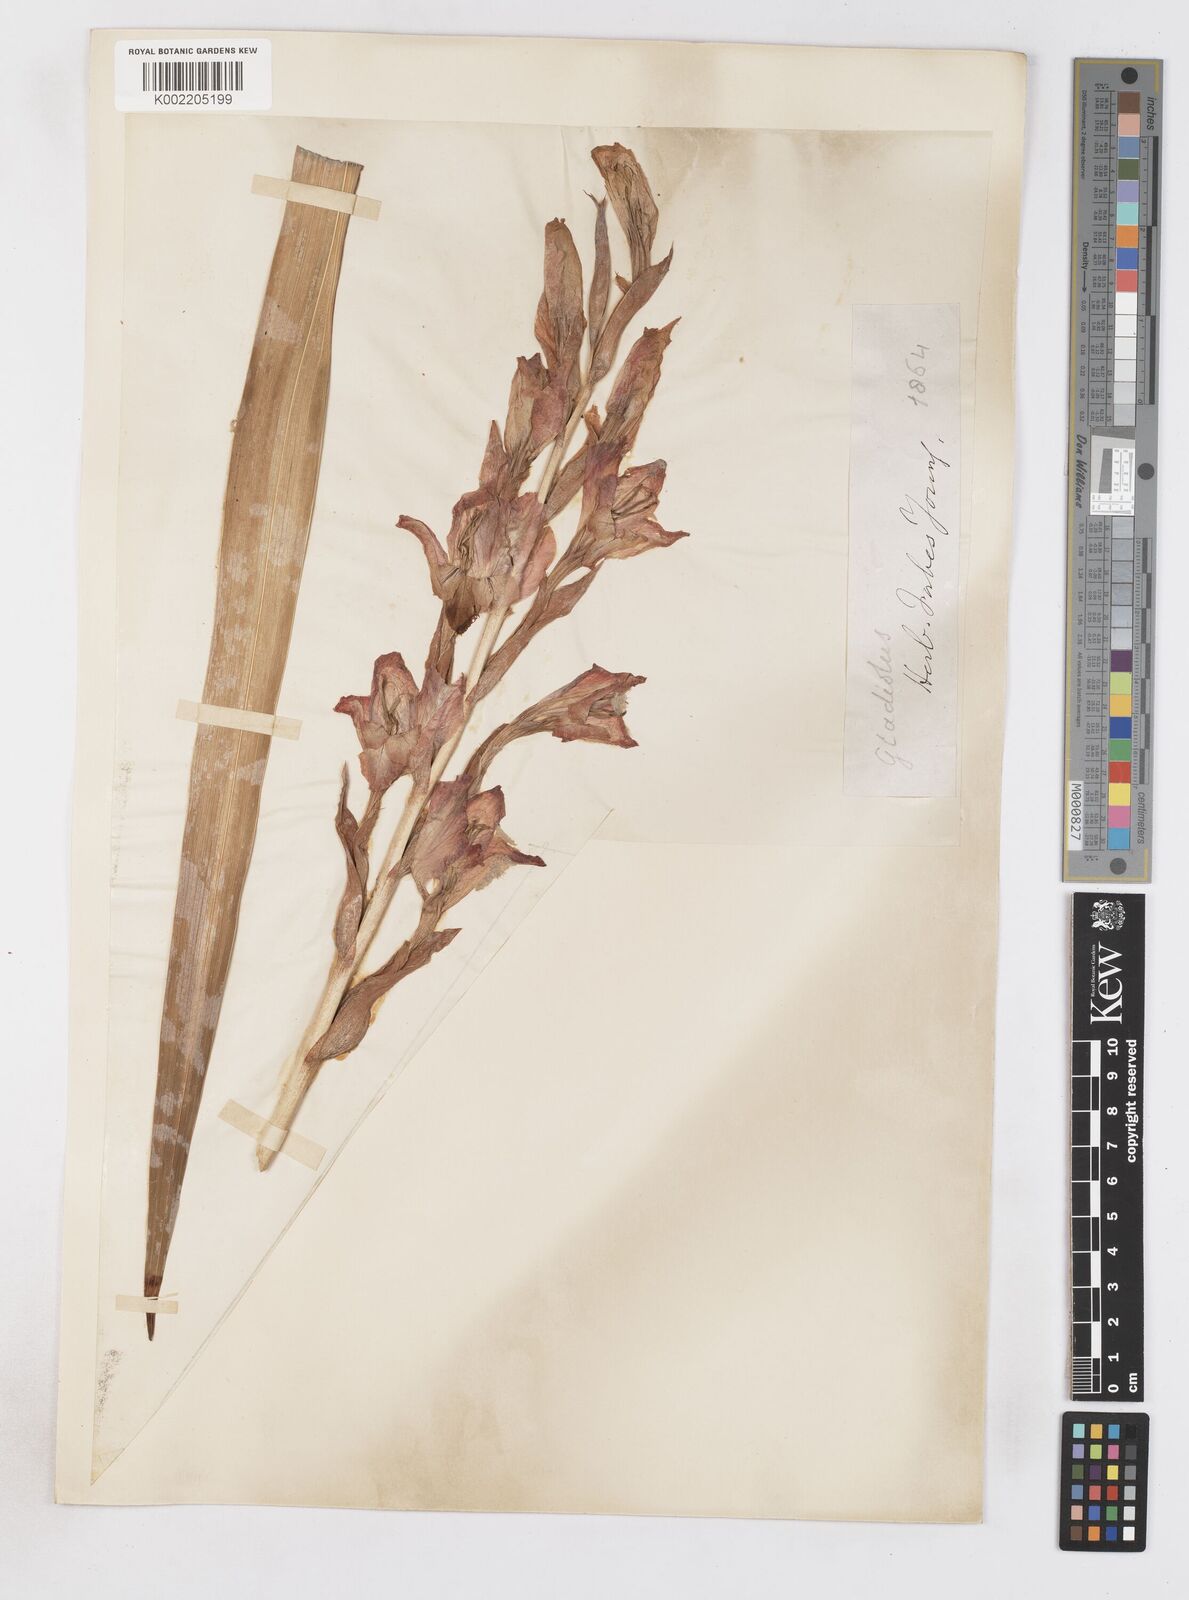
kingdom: Plantae
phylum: Tracheophyta
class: Liliopsida
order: Asparagales
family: Iridaceae
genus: Gladiolus
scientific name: Gladiolus dalenii
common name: Cornflag
